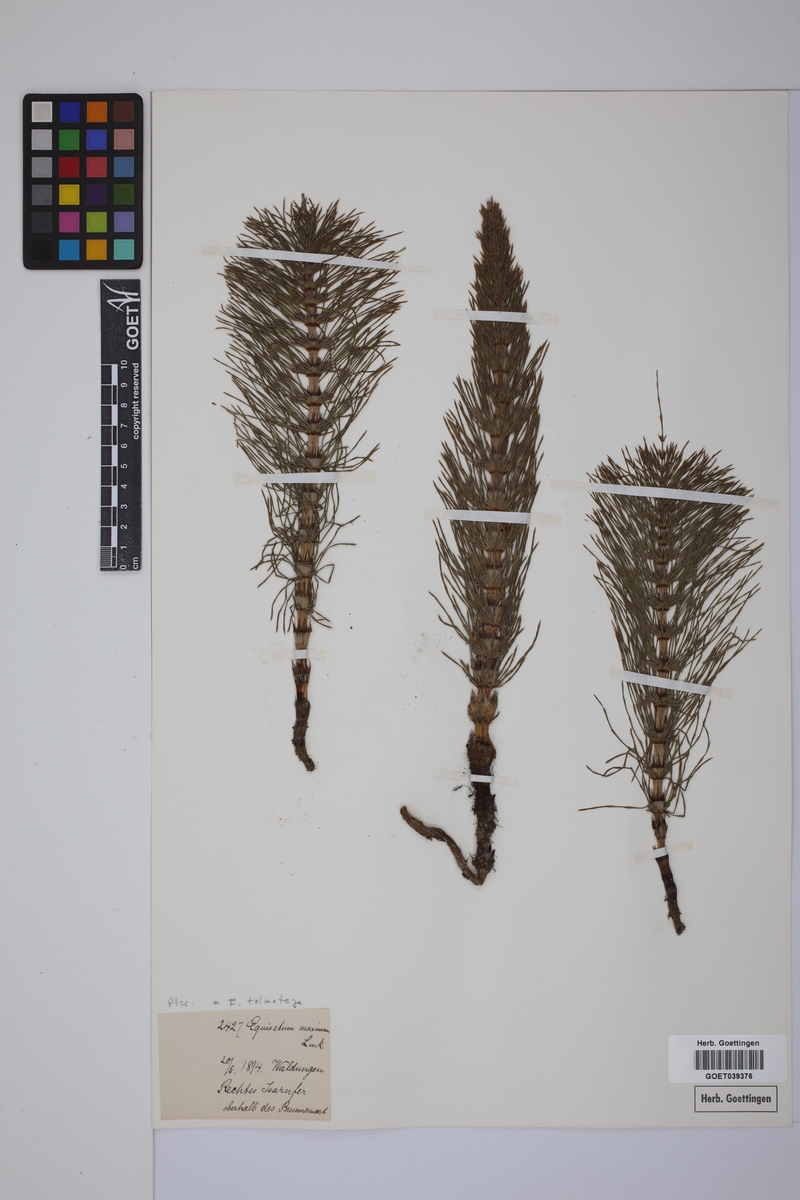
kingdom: Plantae
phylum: Tracheophyta
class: Polypodiopsida
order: Equisetales
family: Equisetaceae
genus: Equisetum
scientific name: Equisetum telmateia
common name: Great horsetail
